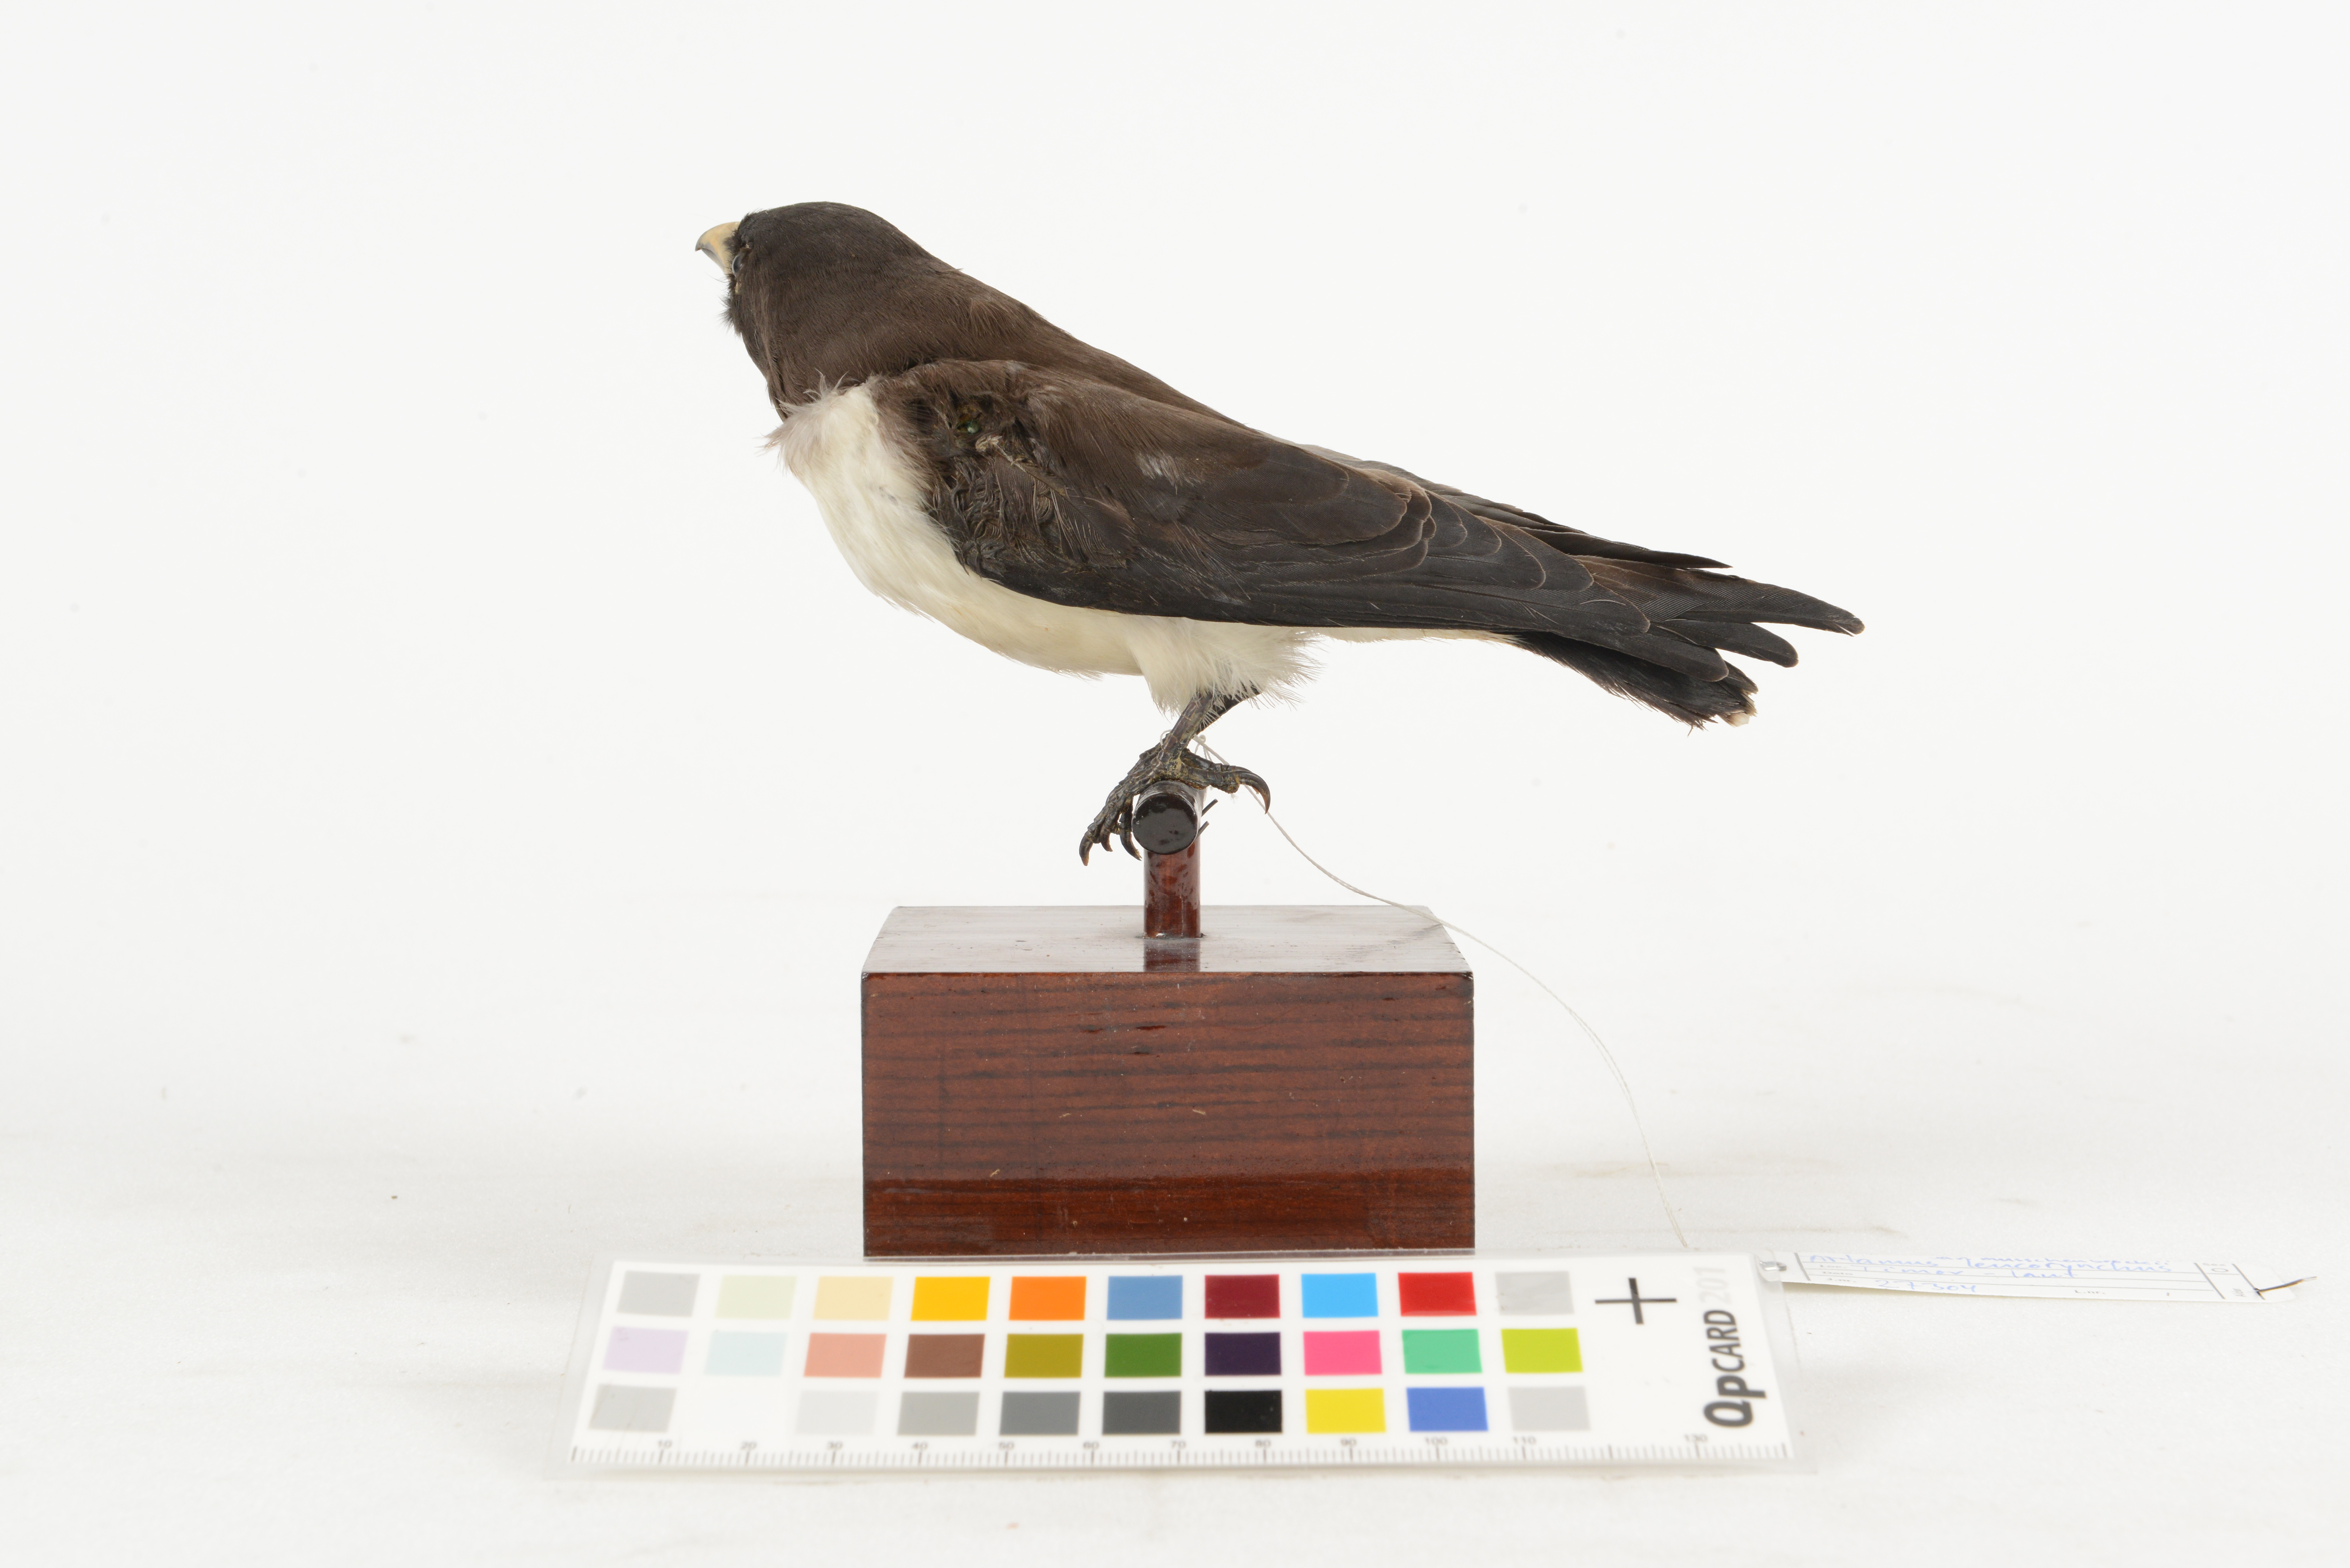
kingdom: Animalia
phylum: Chordata
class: Aves
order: Passeriformes
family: Artamidae
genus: Artamus
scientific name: Artamus leucoryn
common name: White-breasted woodswallow
